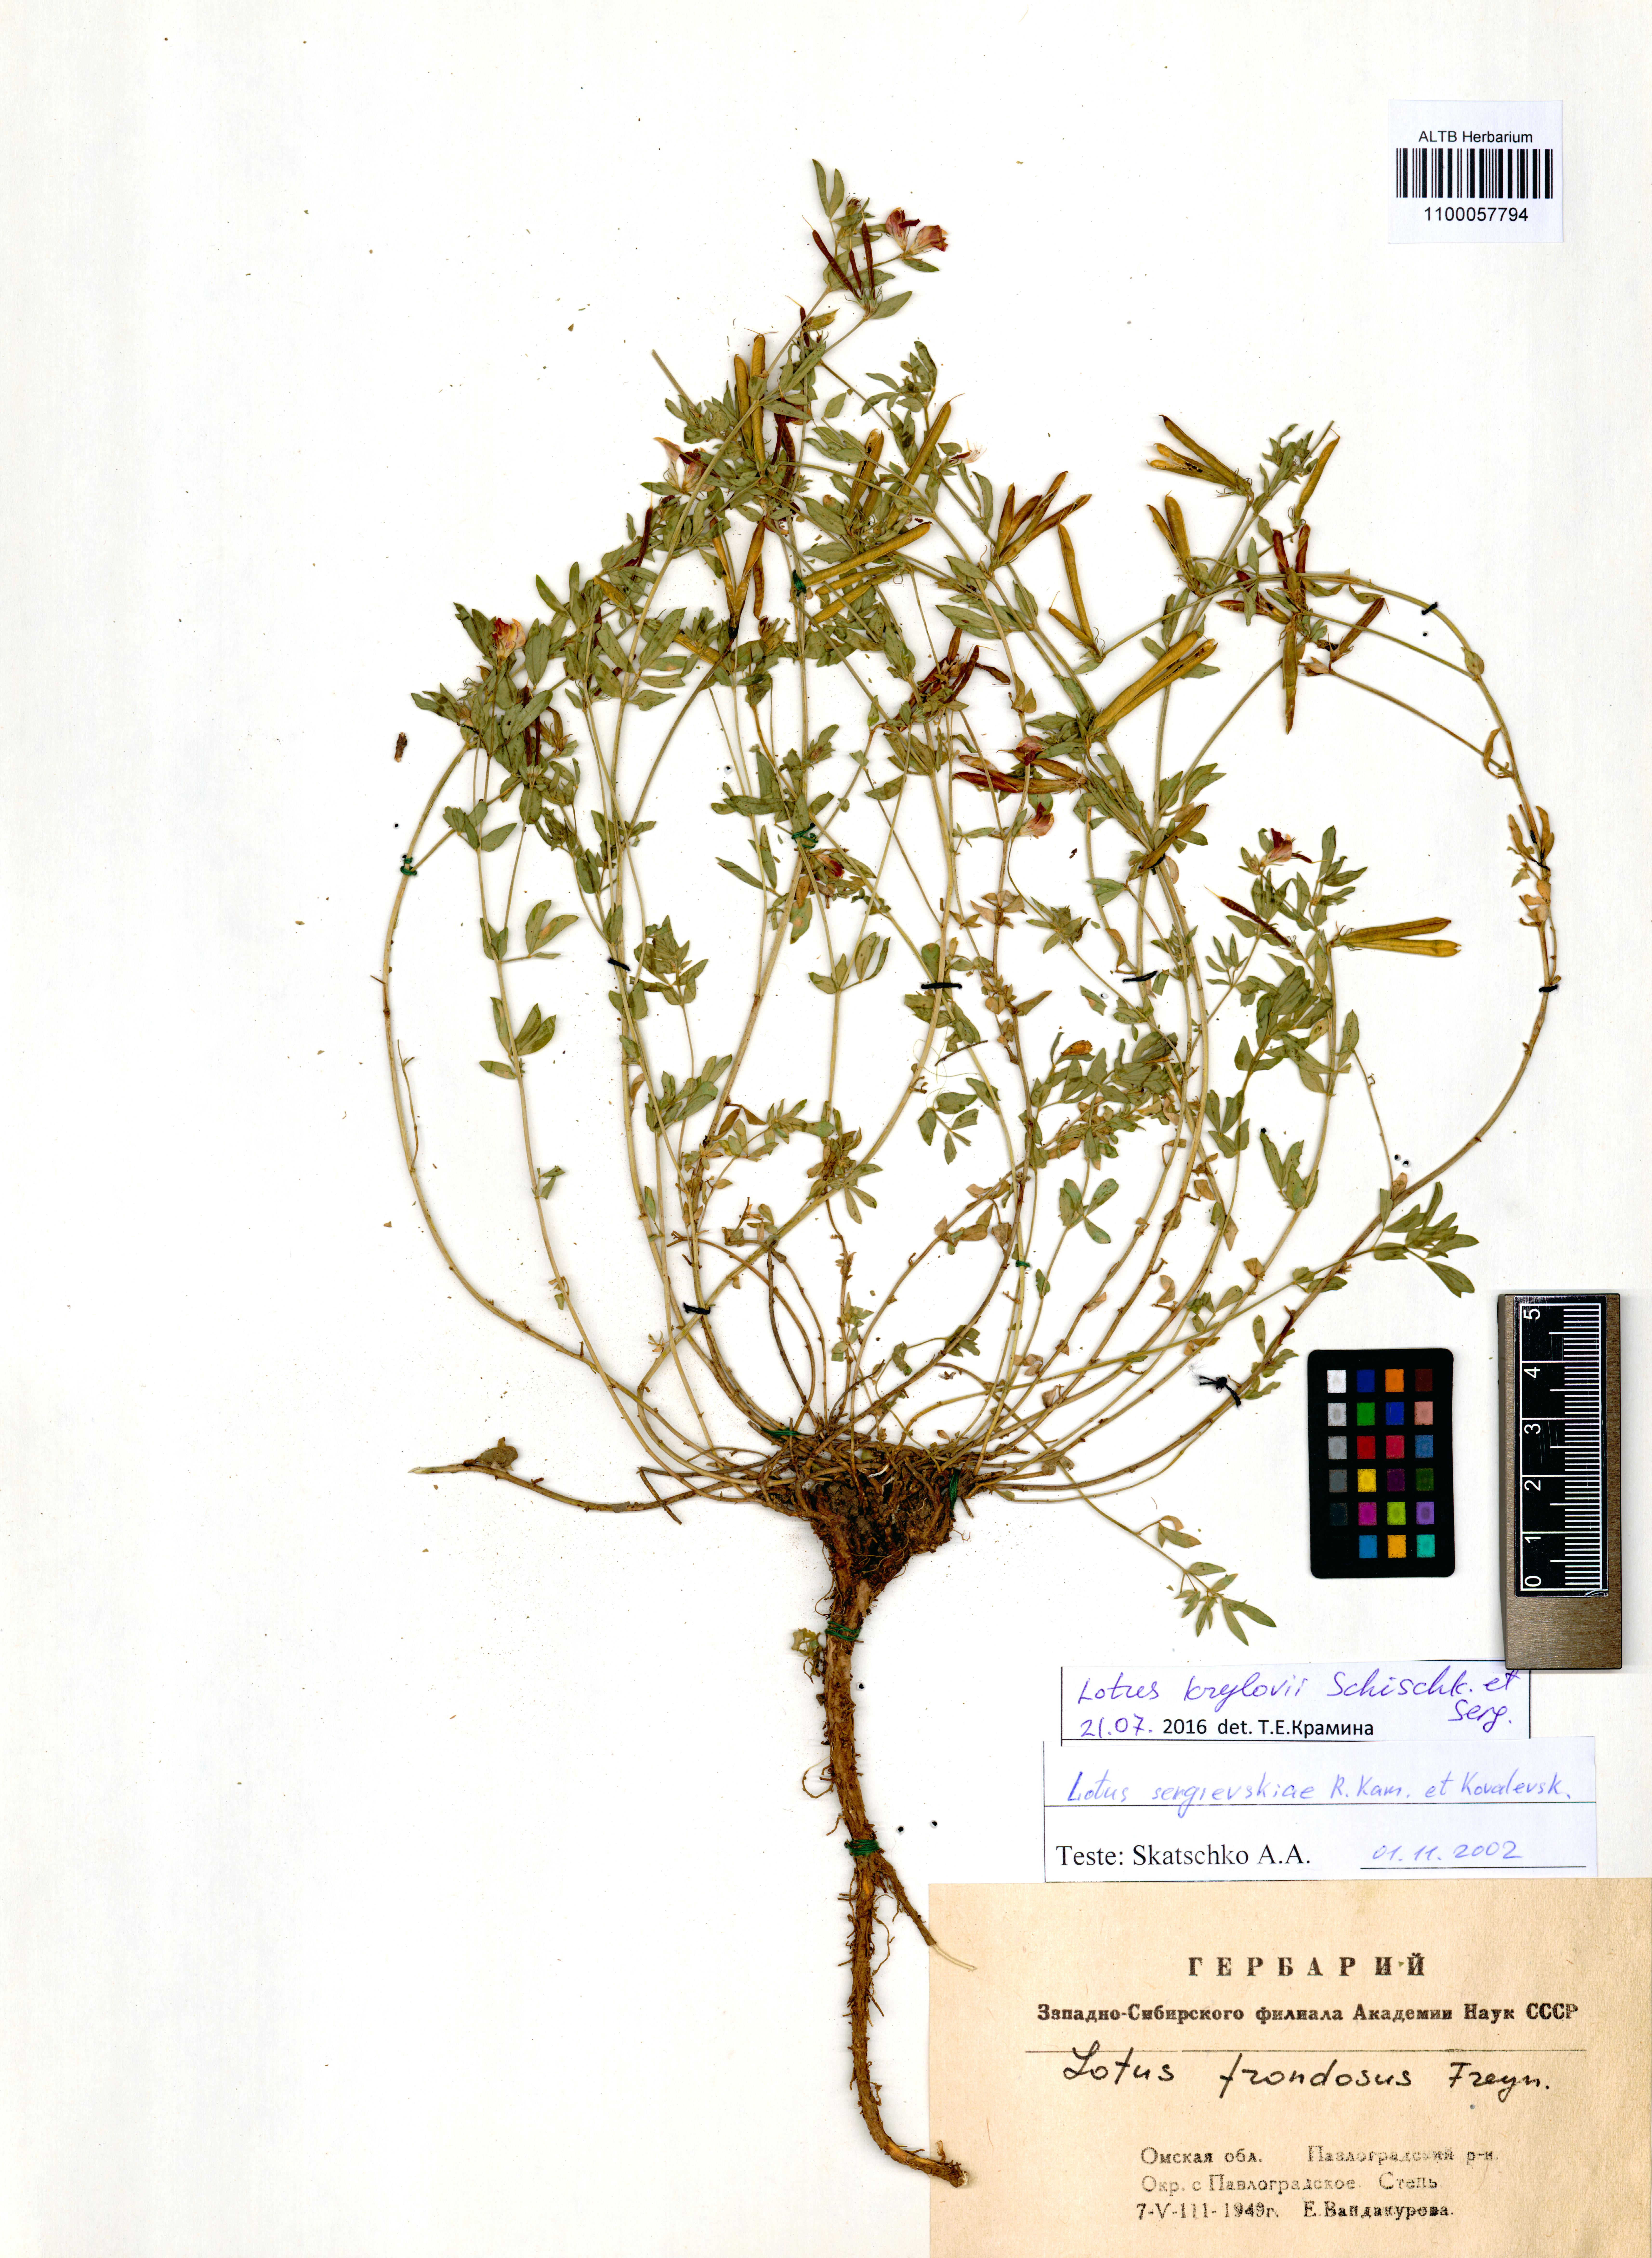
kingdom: Plantae
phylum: Tracheophyta
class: Magnoliopsida
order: Fabales
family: Fabaceae
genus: Lotus
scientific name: Lotus krylovii
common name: Krylov's bird's-foot trefoil
